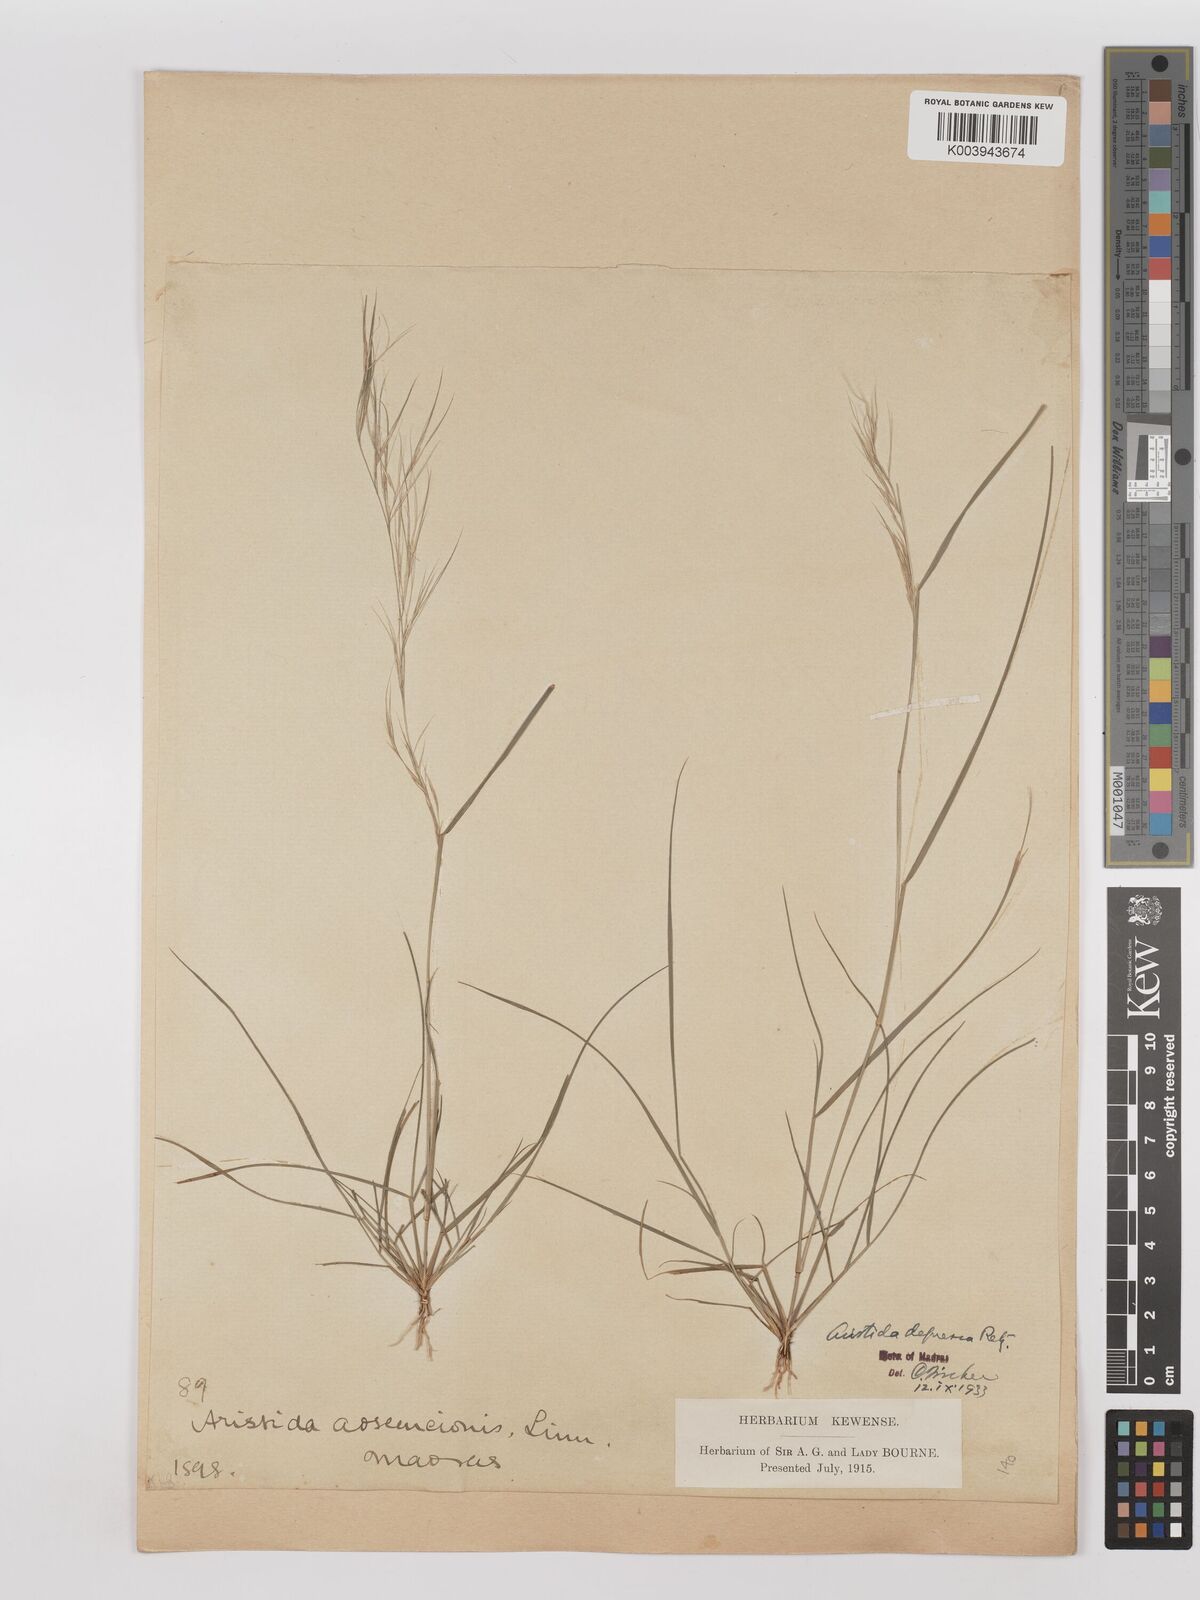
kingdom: Plantae
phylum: Tracheophyta
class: Liliopsida
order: Poales
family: Poaceae
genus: Aristida
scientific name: Aristida adscensionis
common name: Sixweeks threeawn
